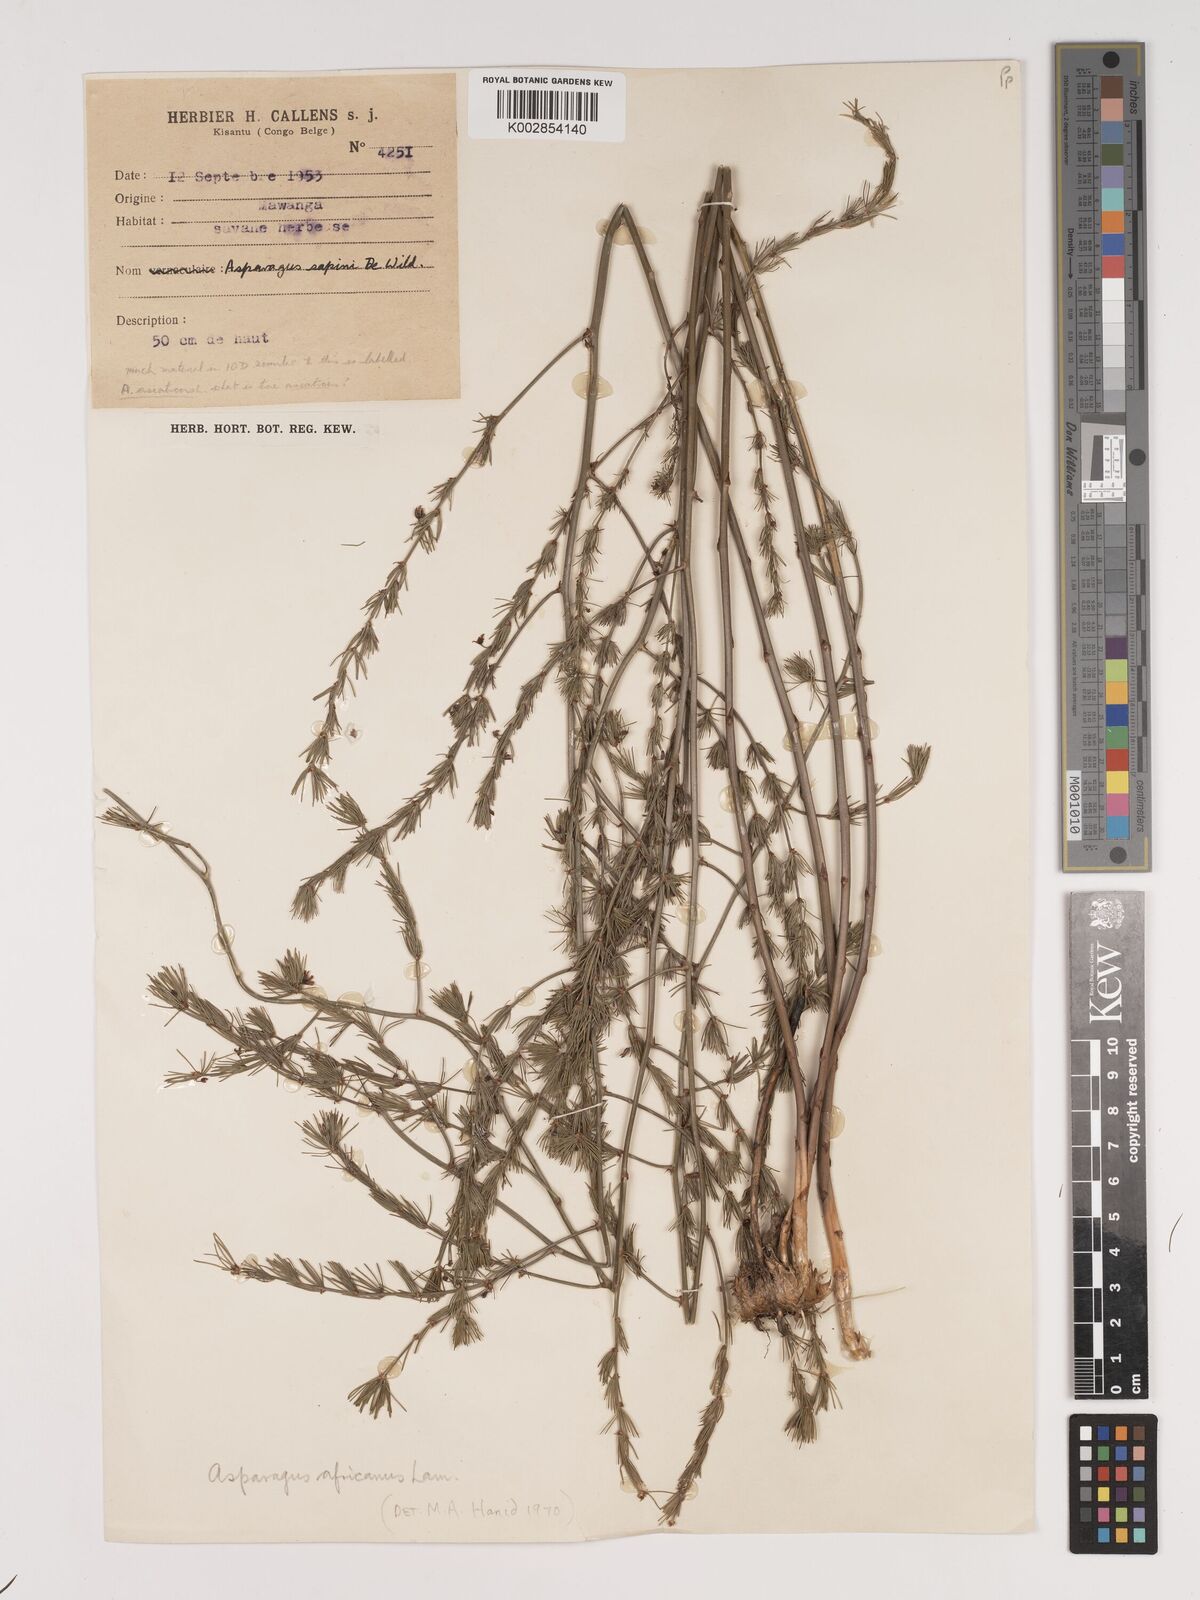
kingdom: Plantae
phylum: Tracheophyta
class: Liliopsida
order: Asparagales
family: Asparagaceae
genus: Asparagus
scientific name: Asparagus africanus
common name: Asparagus-fern
